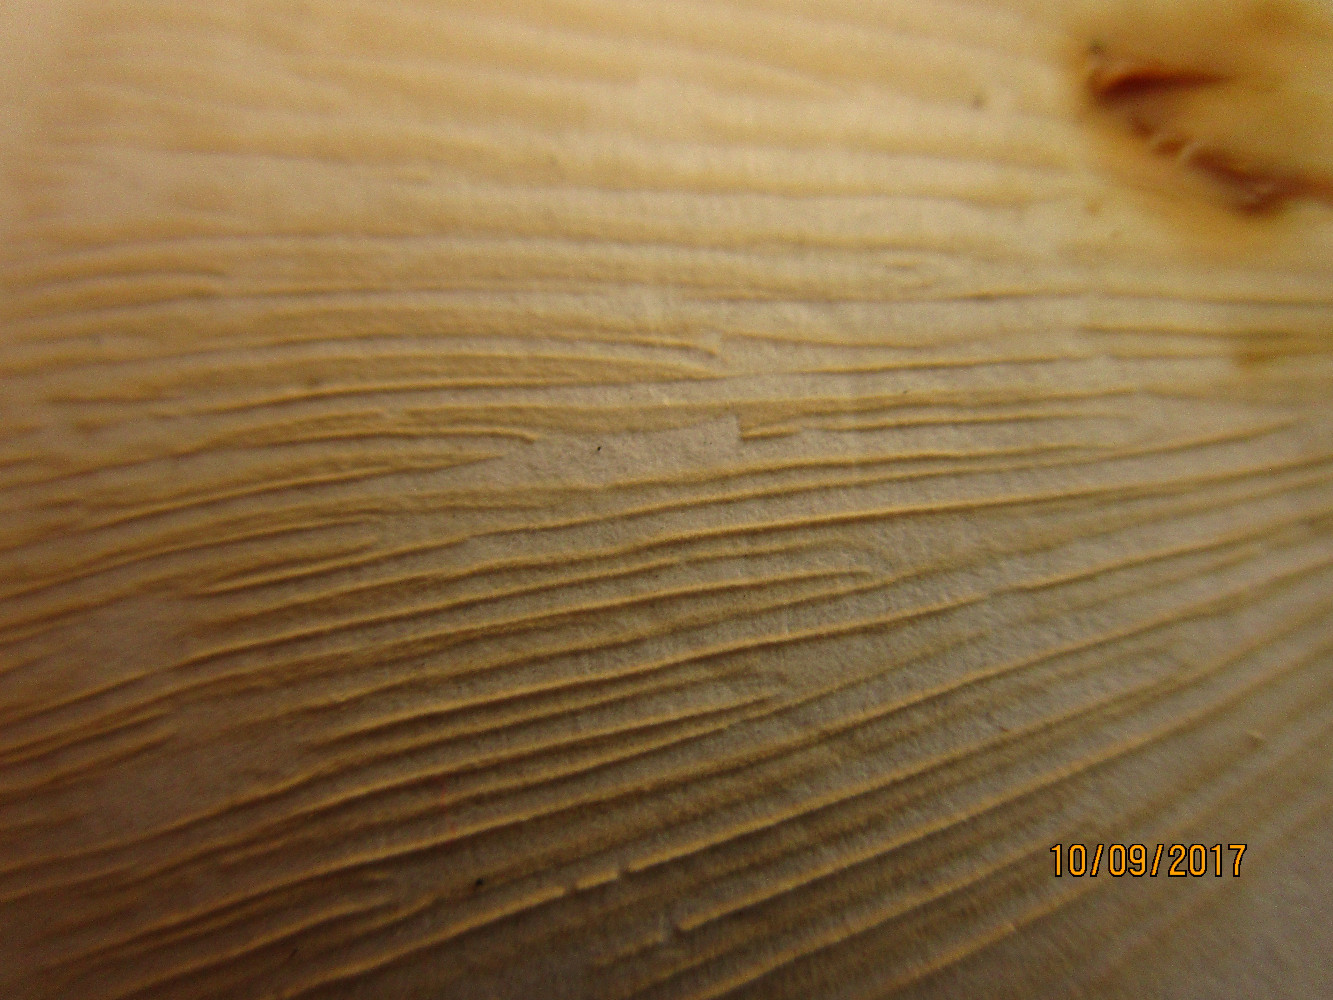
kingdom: Fungi
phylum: Basidiomycota
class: Agaricomycetes
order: Russulales
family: Russulaceae
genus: Lactarius
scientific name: Lactarius pyrogalus
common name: hassel-mælkehat
